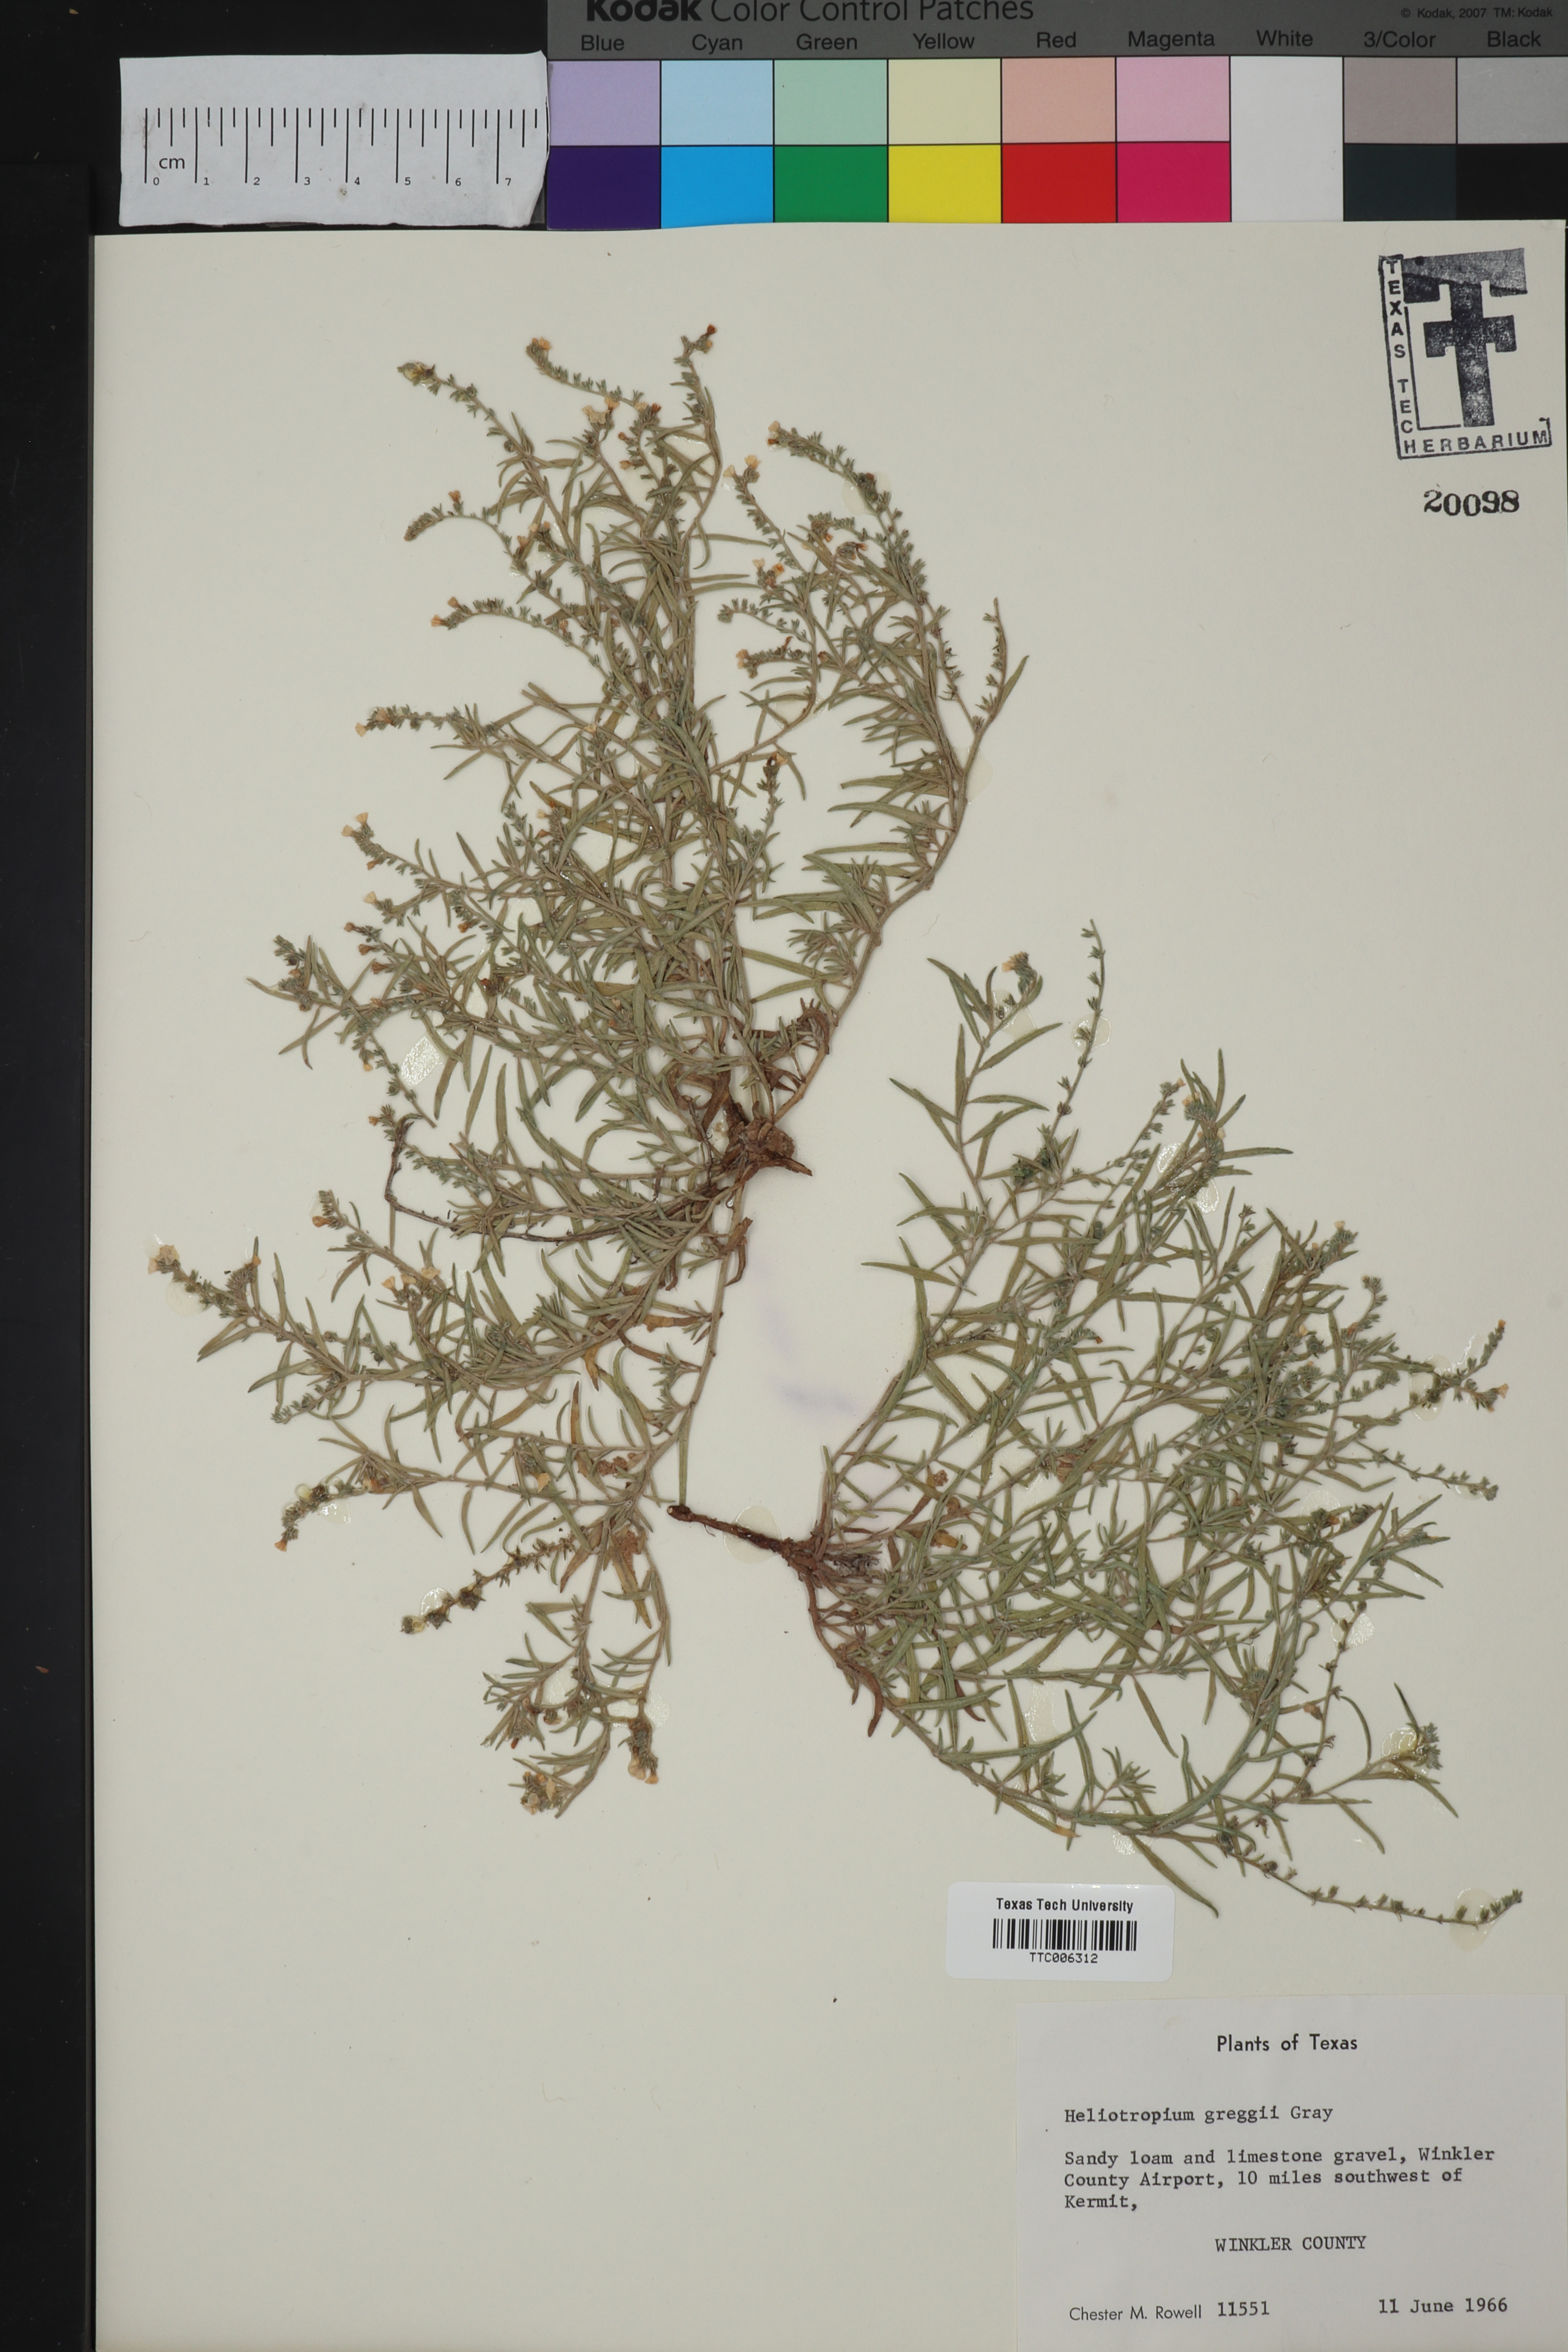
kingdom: Plantae
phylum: Tracheophyta
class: Magnoliopsida
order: Boraginales
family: Heliotropiaceae
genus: Euploca
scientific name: Euploca greggii
